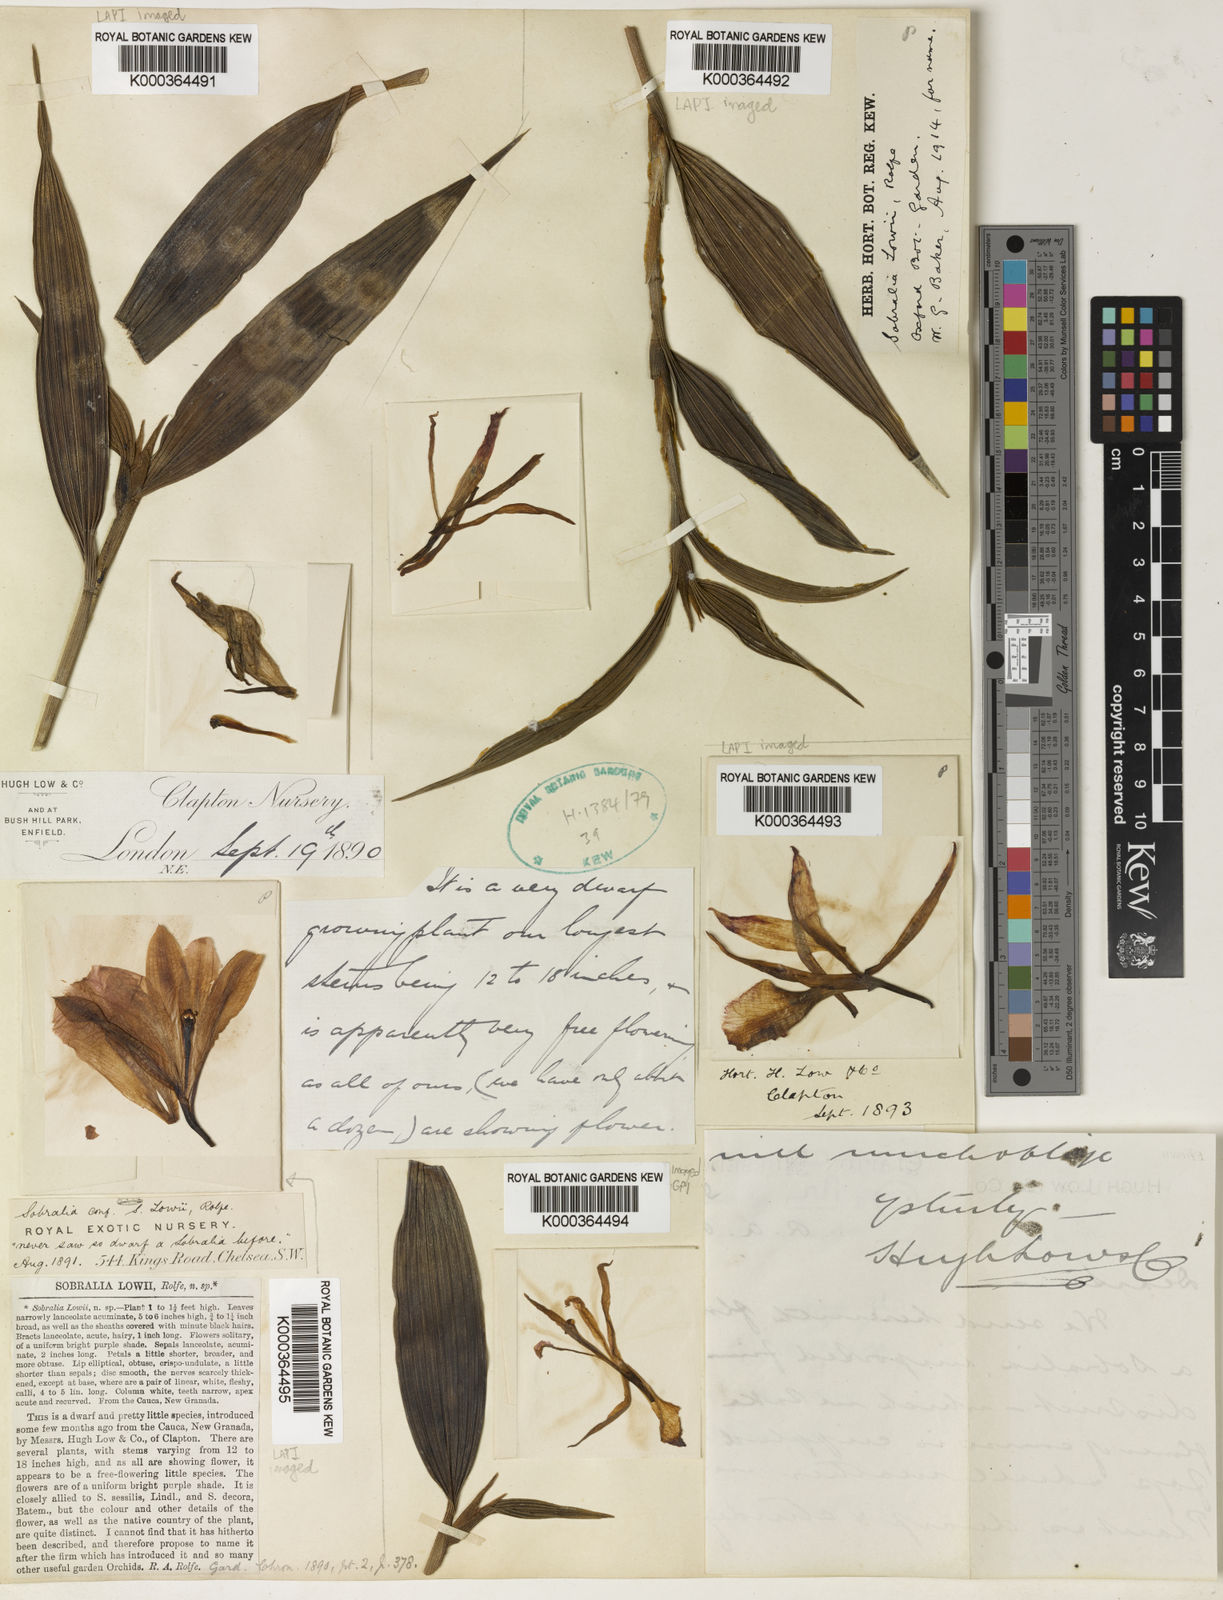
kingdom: Plantae
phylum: Tracheophyta
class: Liliopsida
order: Asparagales
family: Orchidaceae
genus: Sobralia
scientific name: Sobralia lowii
